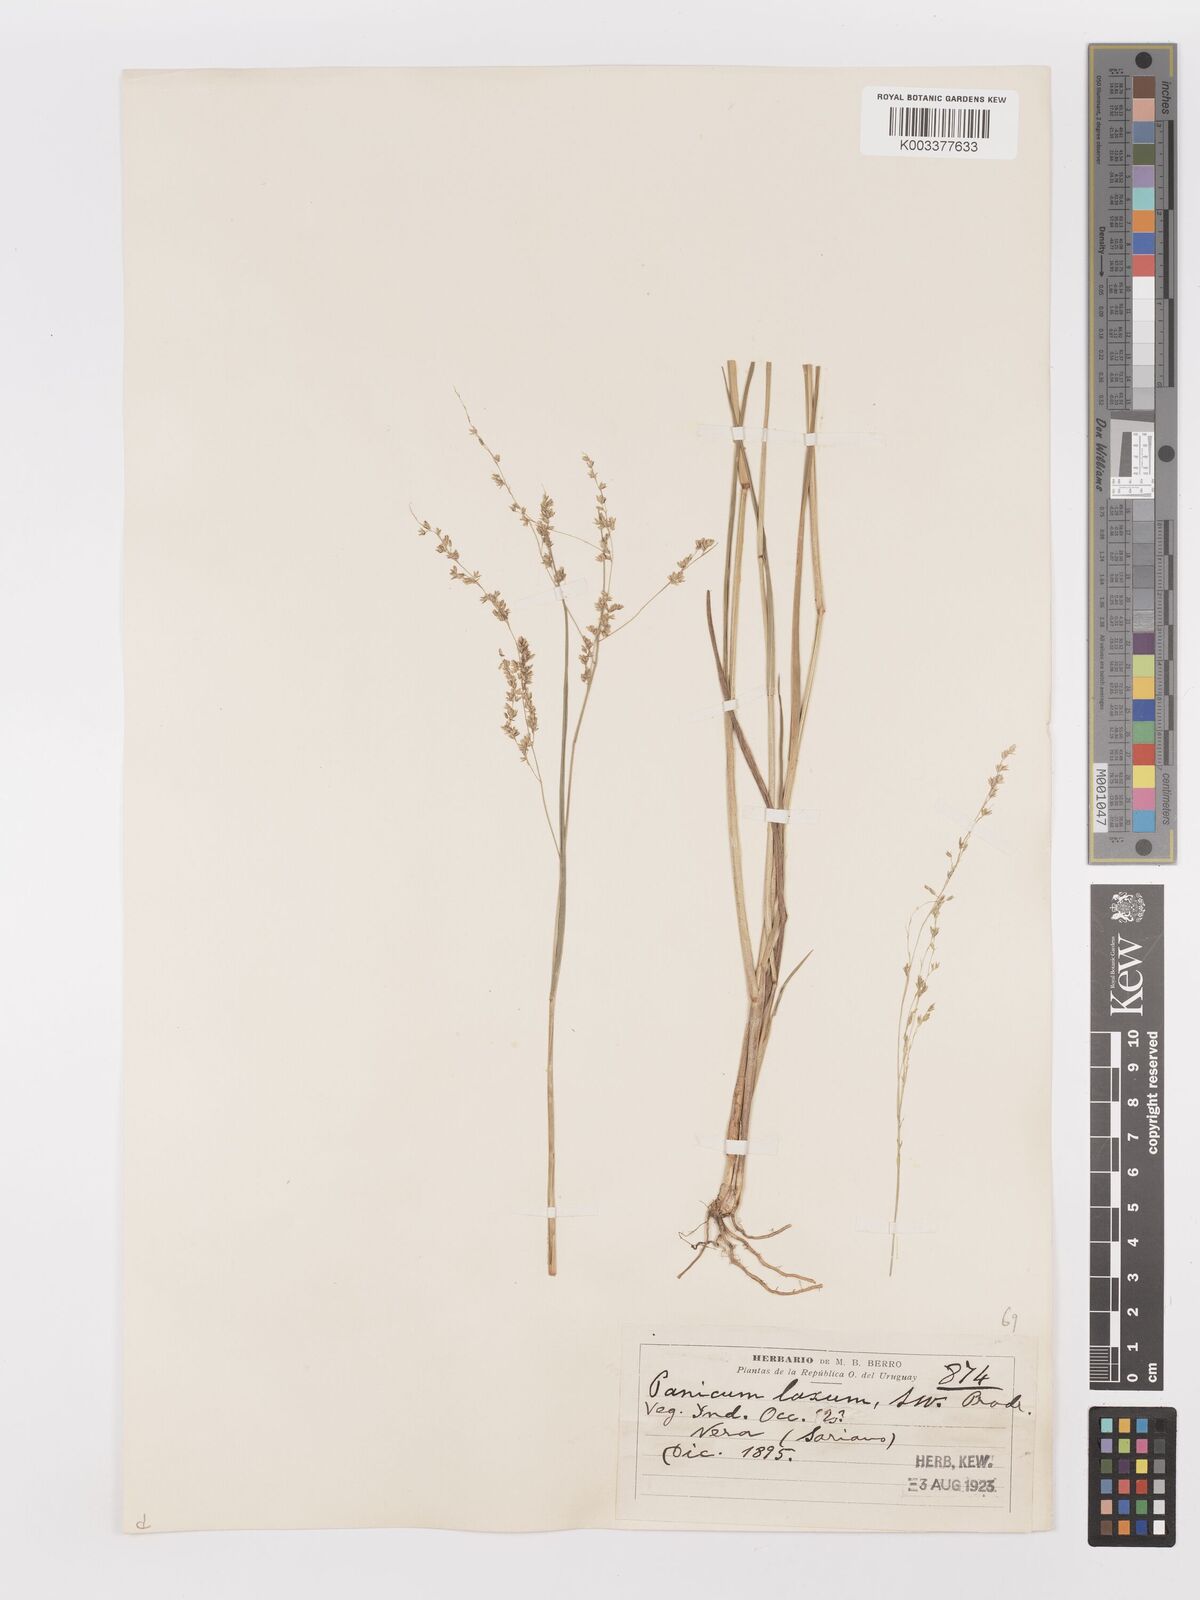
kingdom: Plantae
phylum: Tracheophyta
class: Liliopsida
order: Poales
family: Poaceae
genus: Steinchisma
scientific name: Steinchisma laxum
